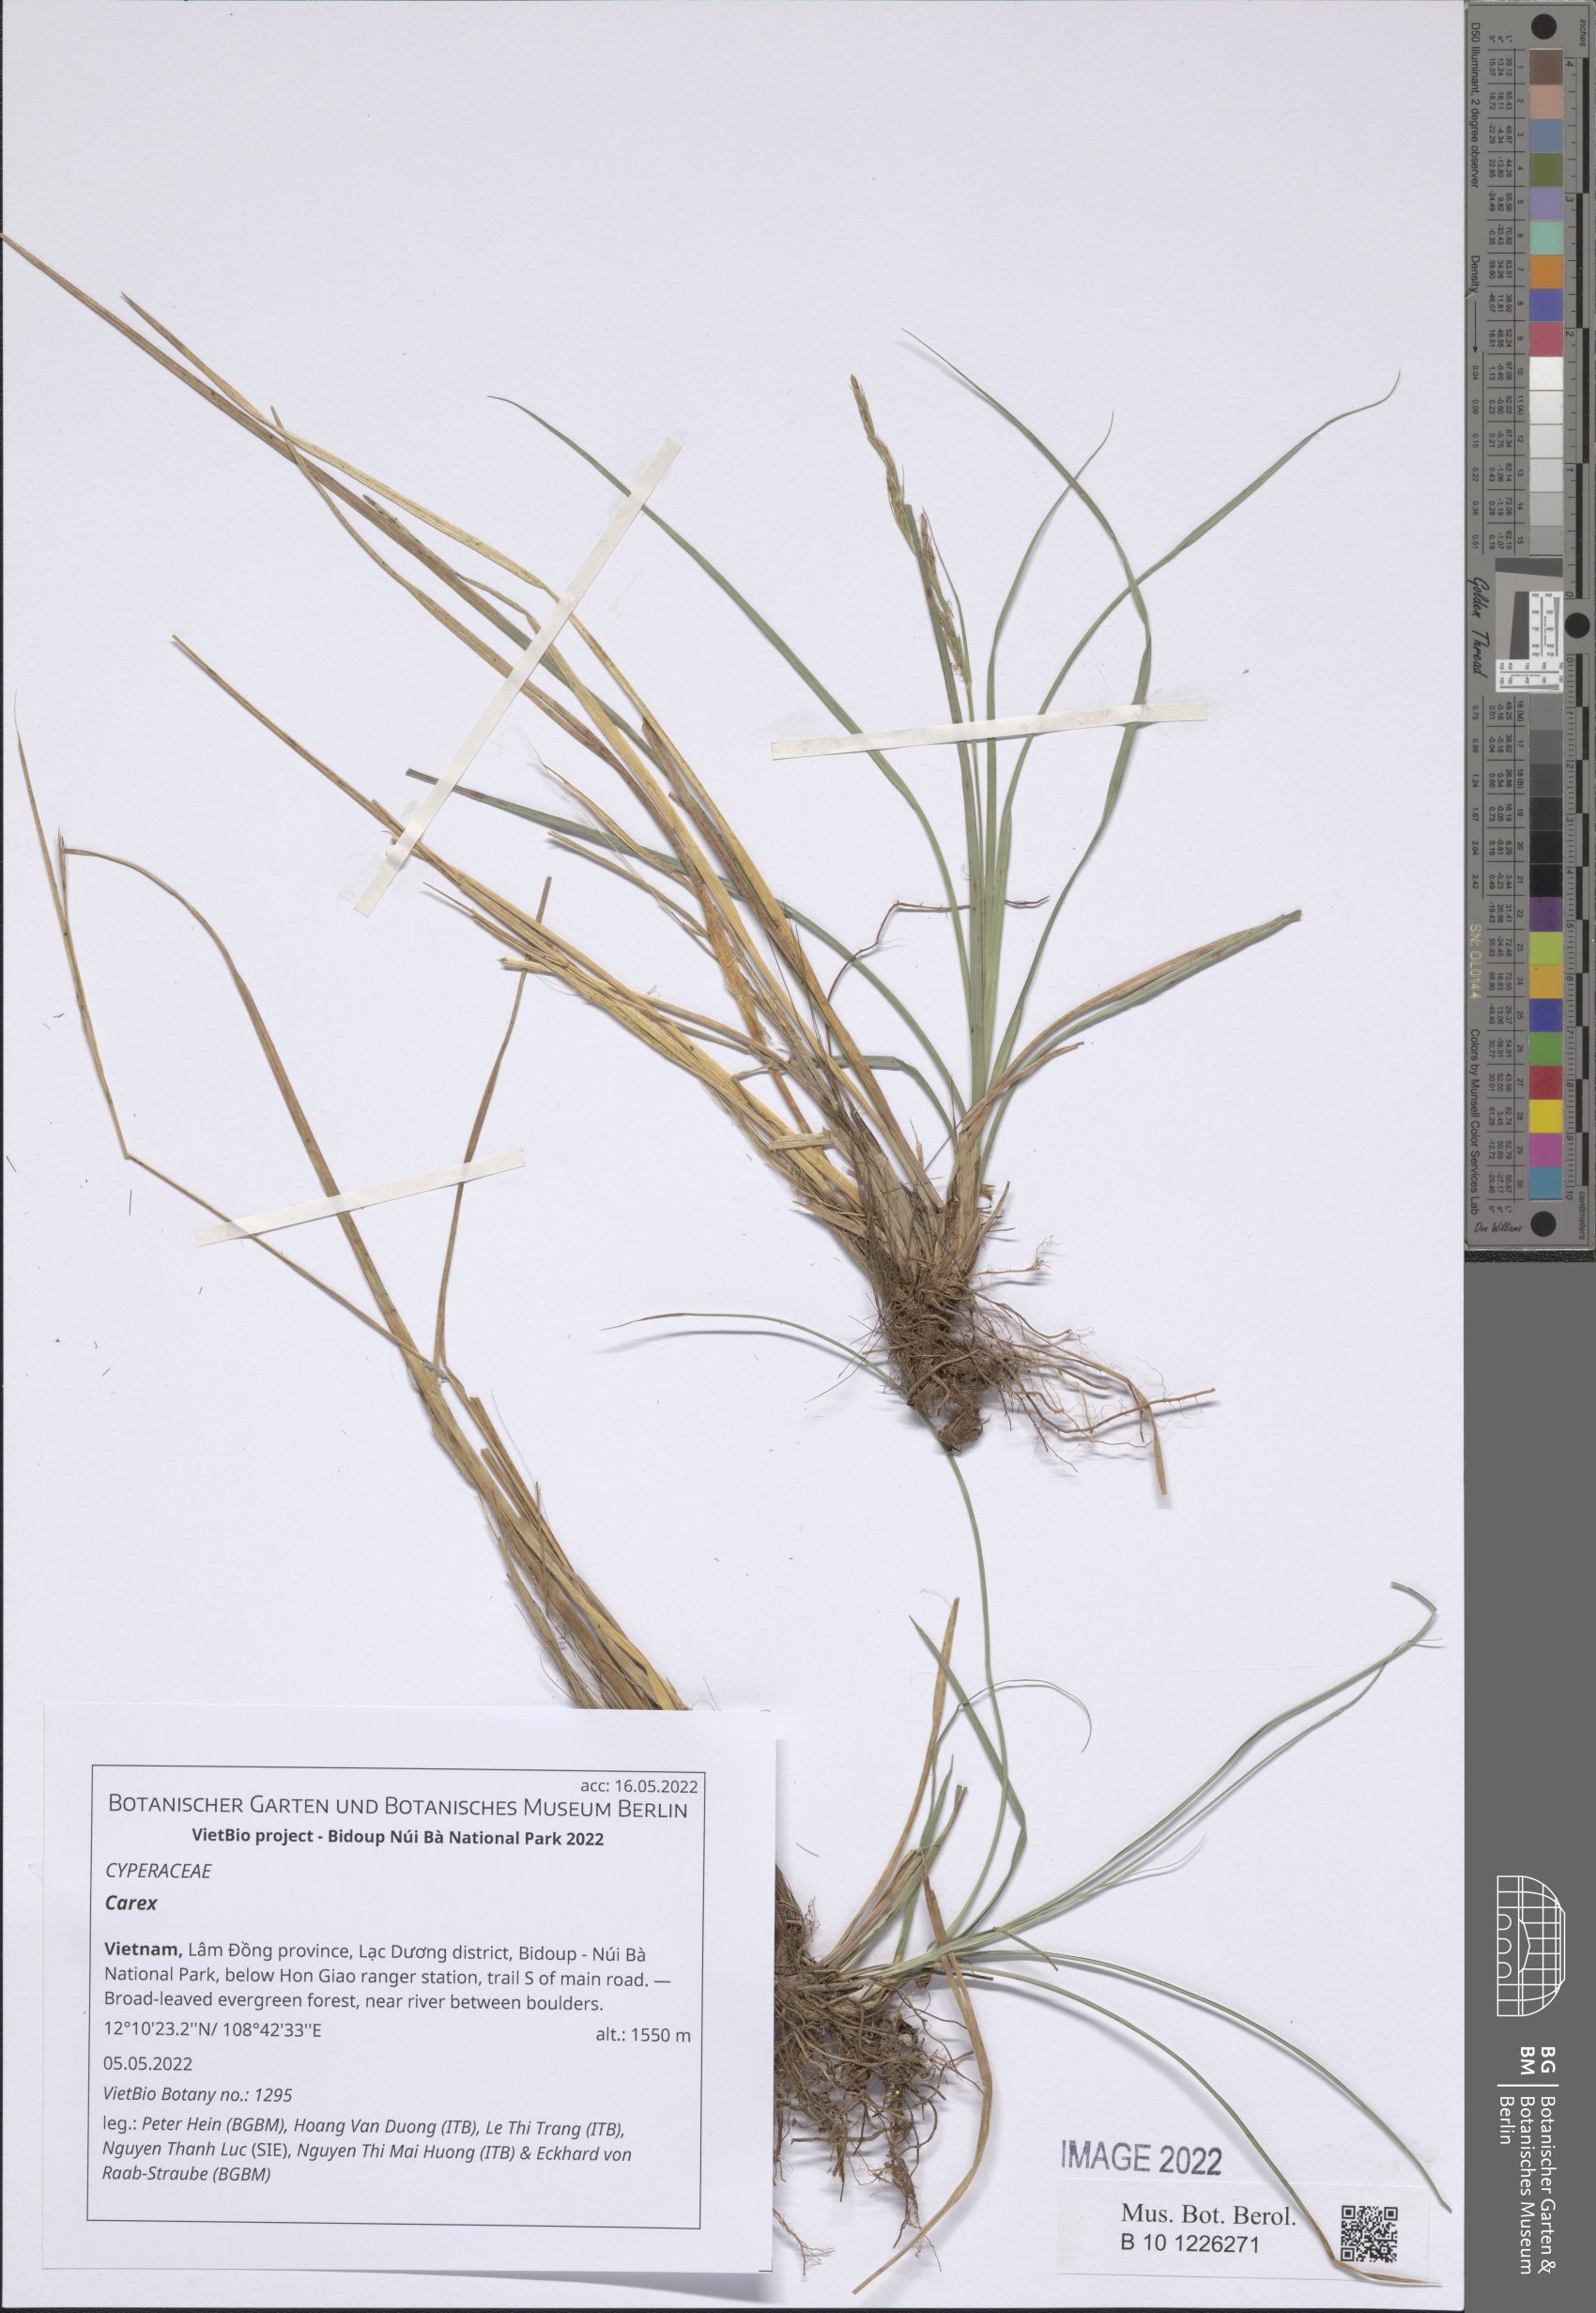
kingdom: Plantae
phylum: Tracheophyta
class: Liliopsida
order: Poales
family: Cyperaceae
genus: Carex
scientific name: Carex
